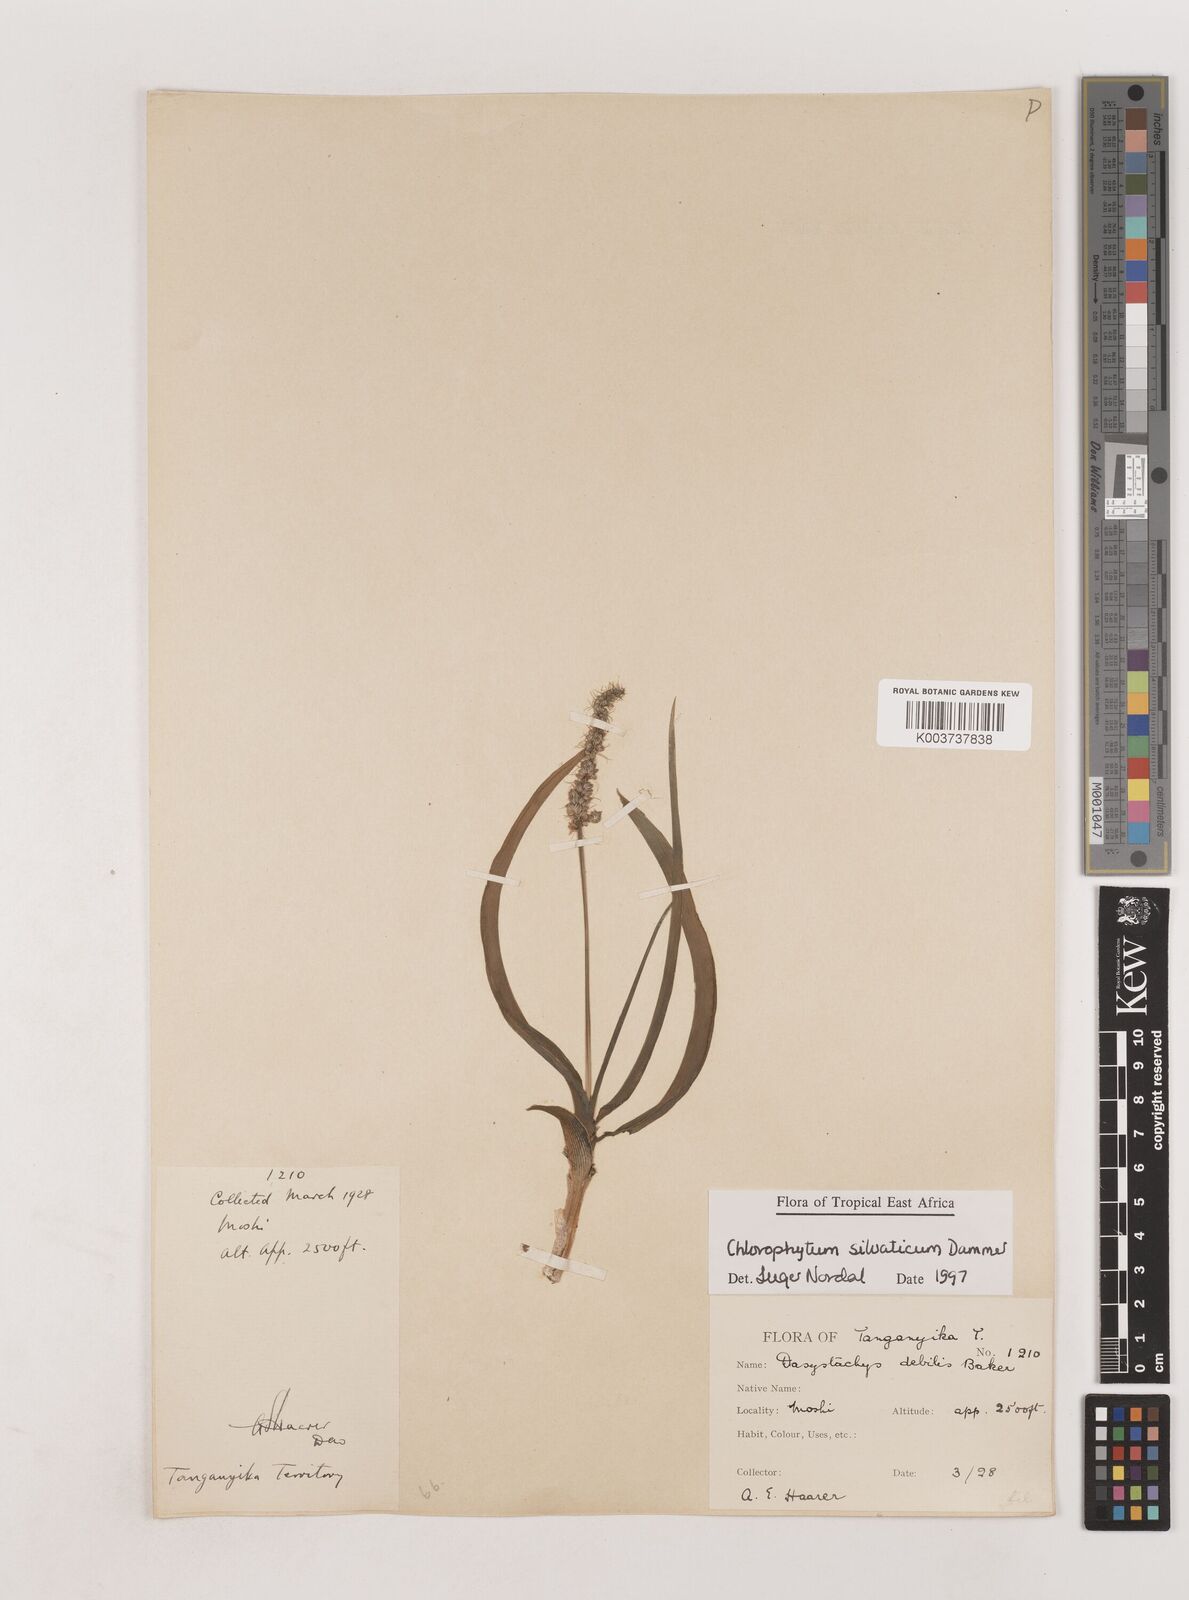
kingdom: Plantae
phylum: Tracheophyta
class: Liliopsida
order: Asparagales
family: Asparagaceae
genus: Chlorophytum
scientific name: Chlorophytum africanum
